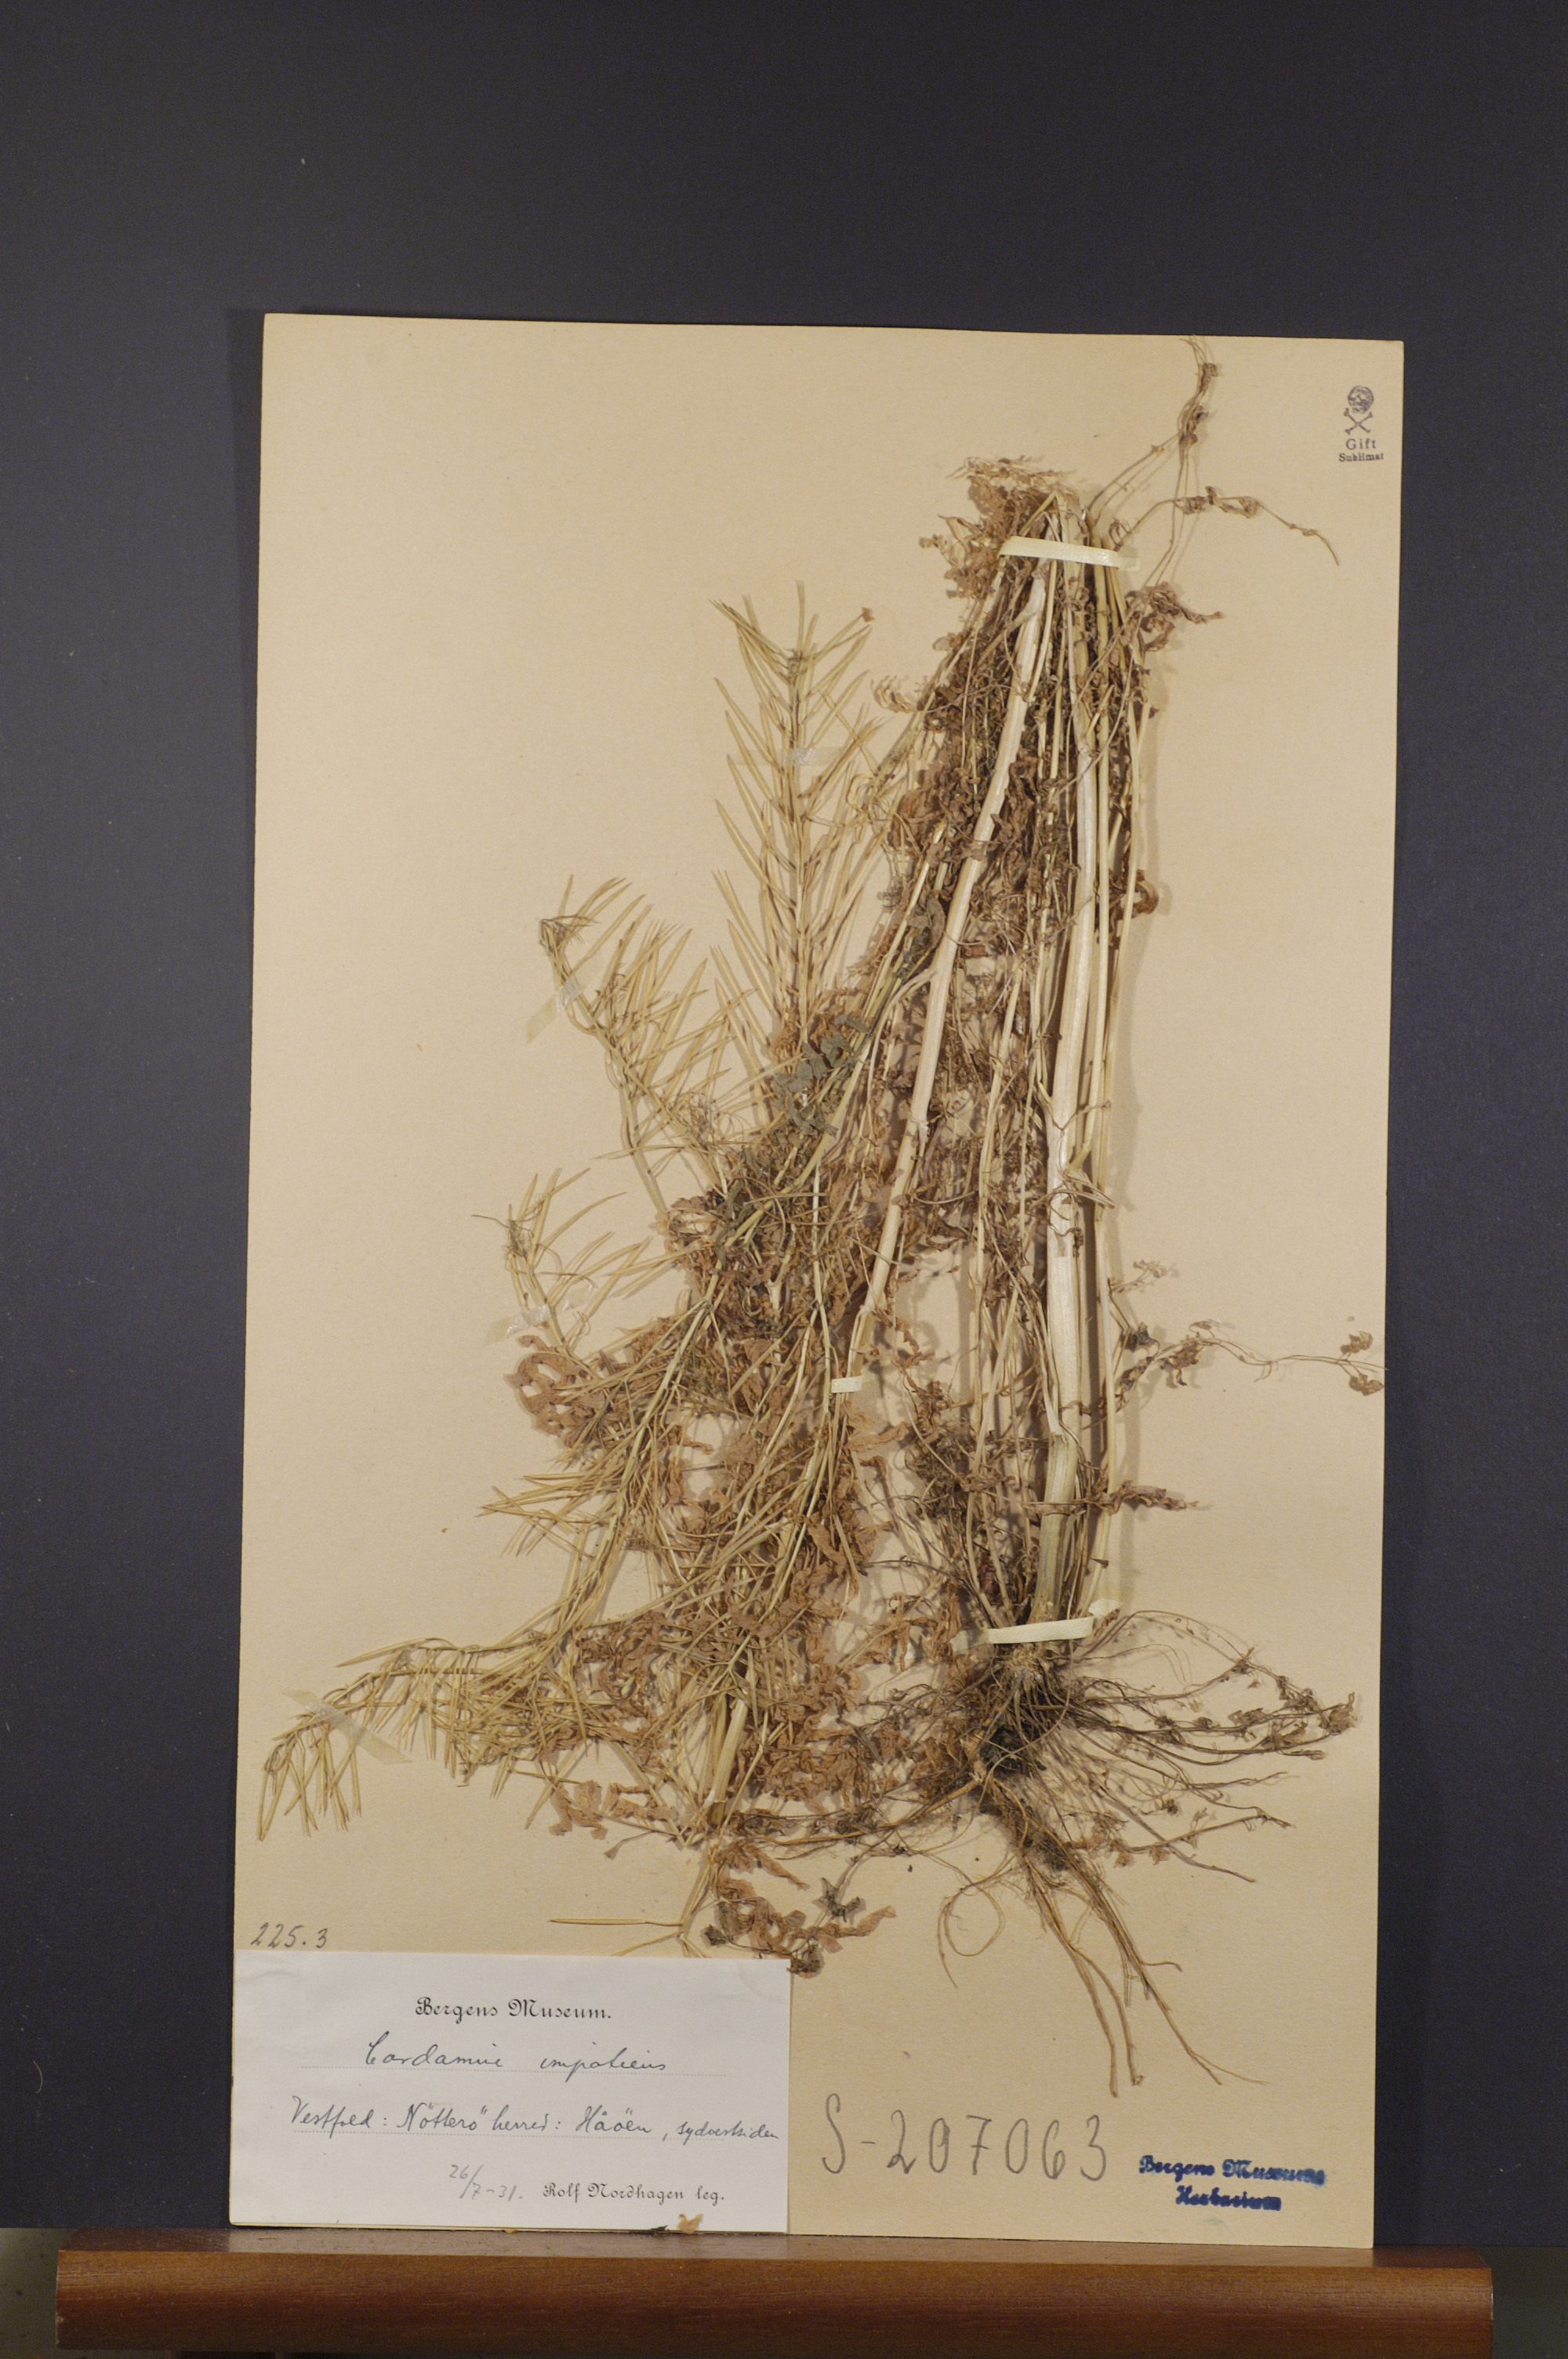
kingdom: Plantae
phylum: Tracheophyta
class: Magnoliopsida
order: Brassicales
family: Brassicaceae
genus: Cardamine
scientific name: Cardamine impatiens
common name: Narrow-leaved bitter-cress
